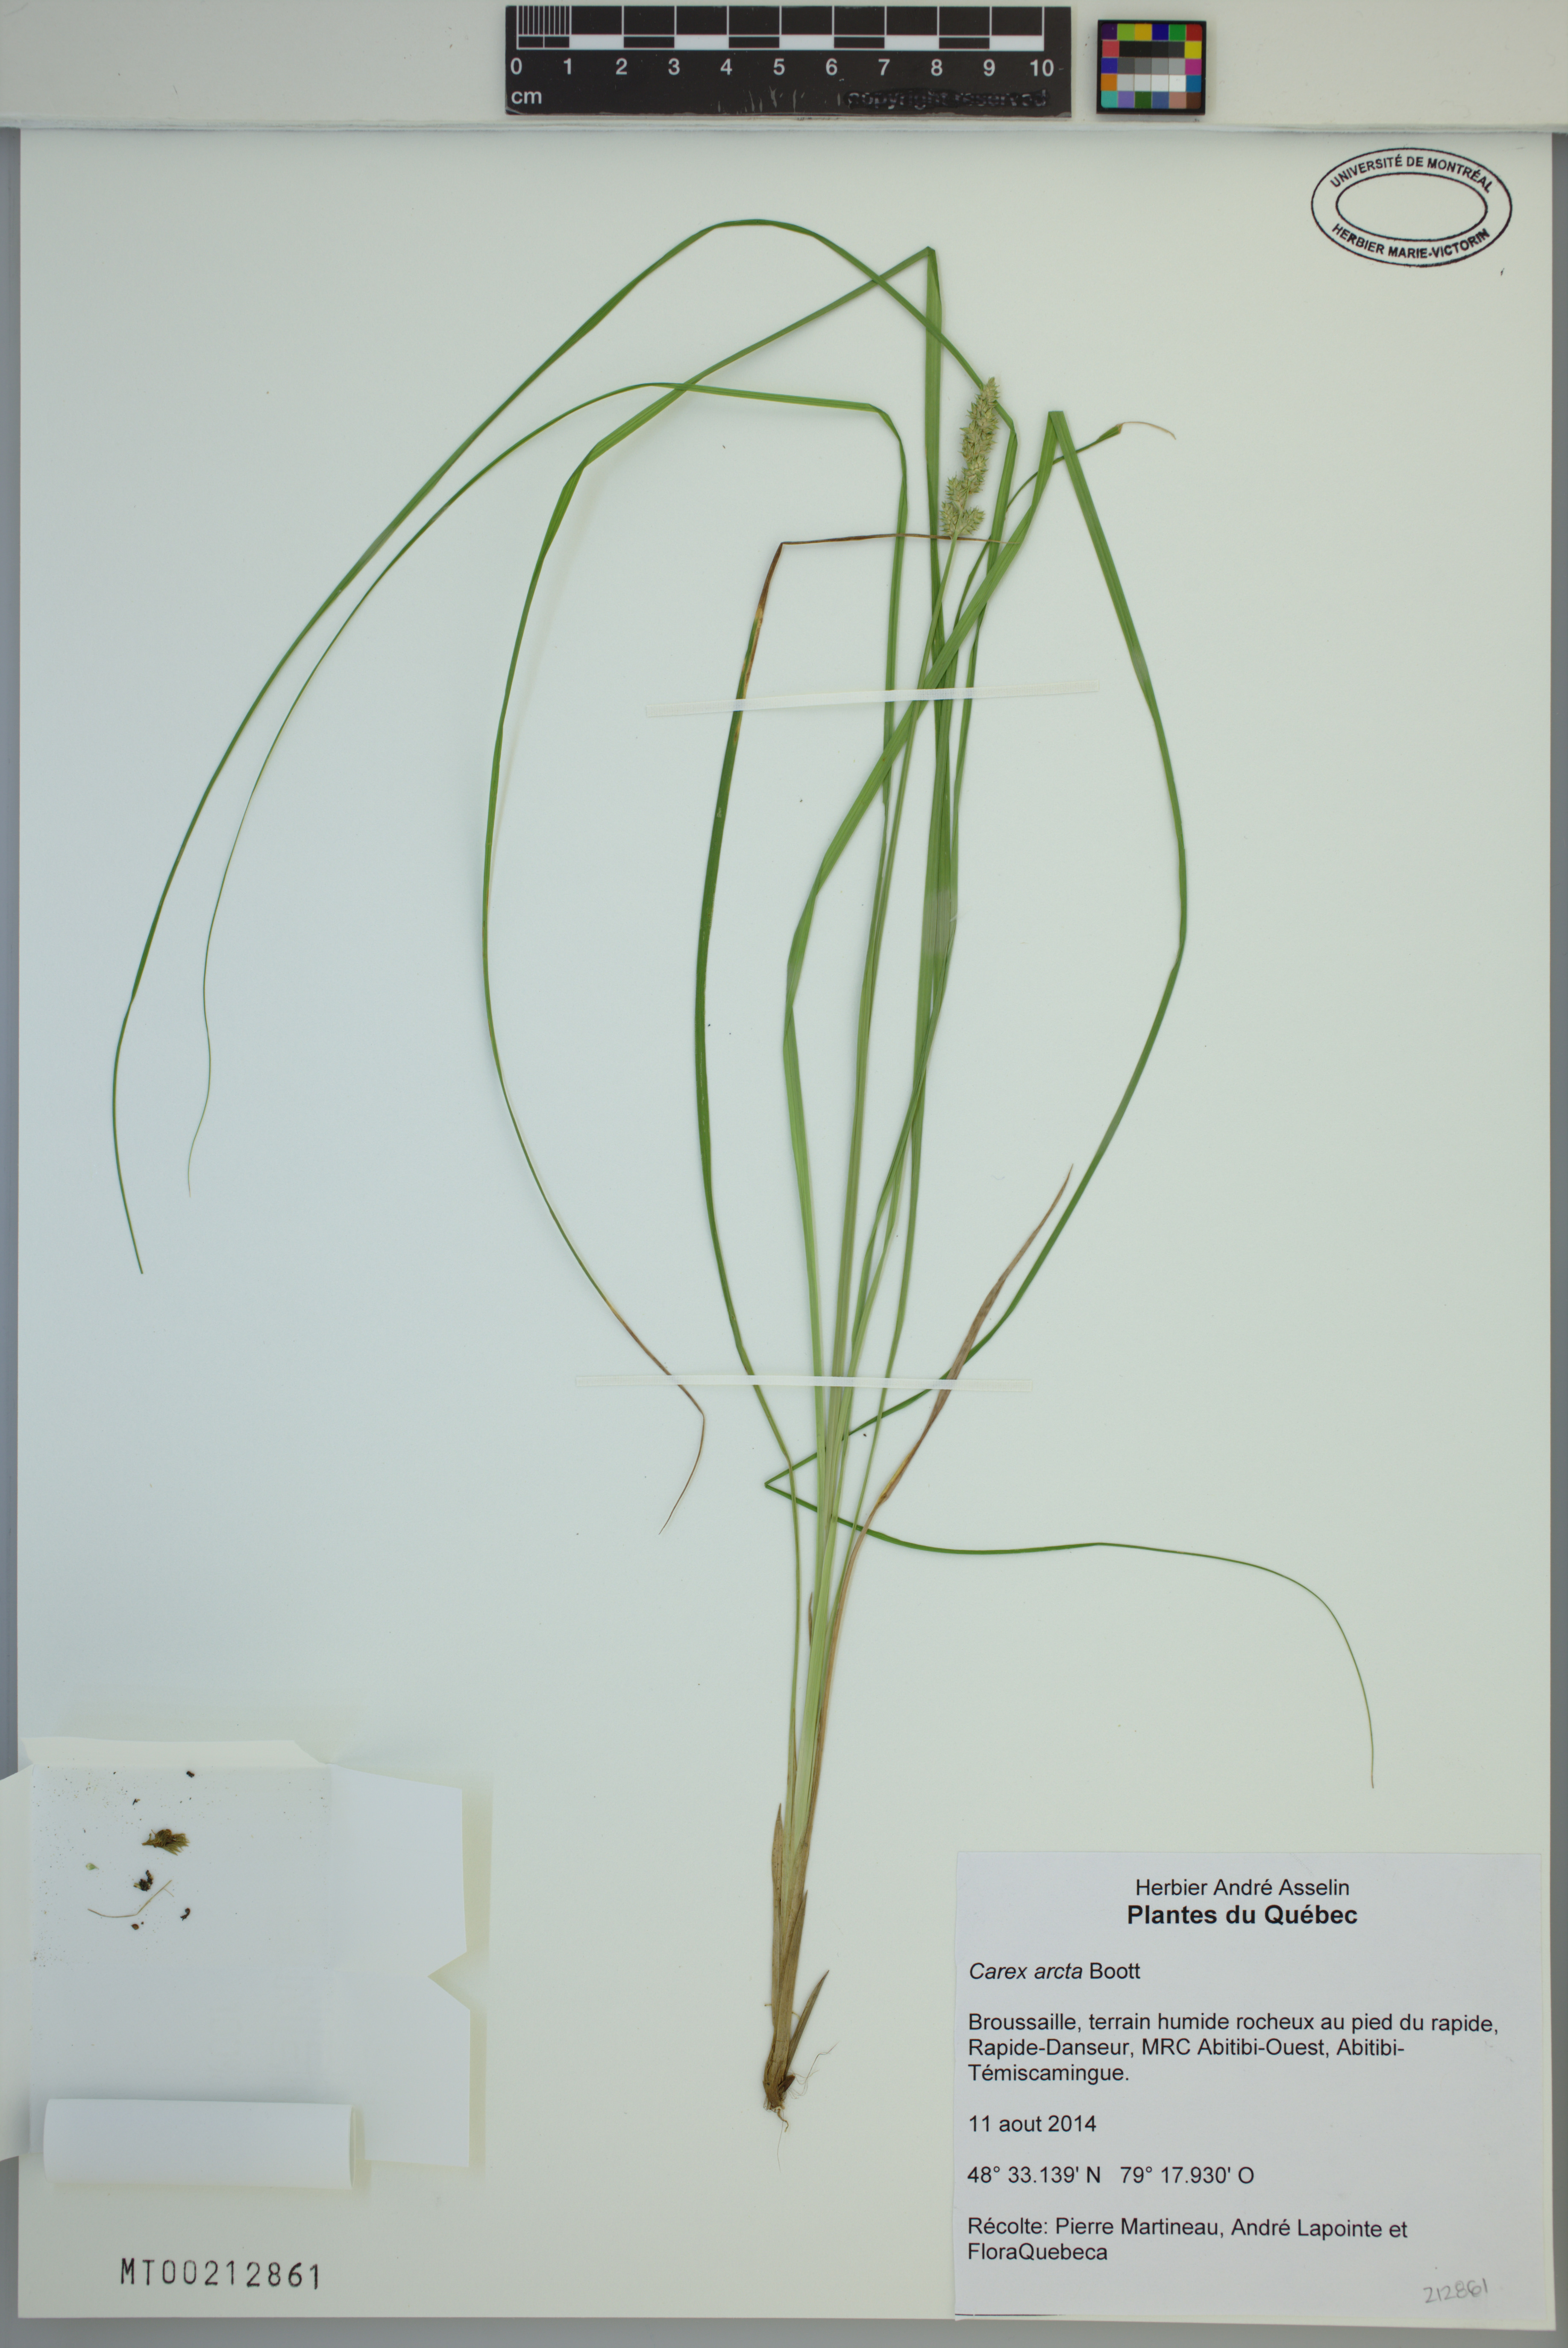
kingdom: Plantae
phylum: Tracheophyta
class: Liliopsida
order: Poales
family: Cyperaceae
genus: Carex
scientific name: Carex arcta
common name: Bear sedge
